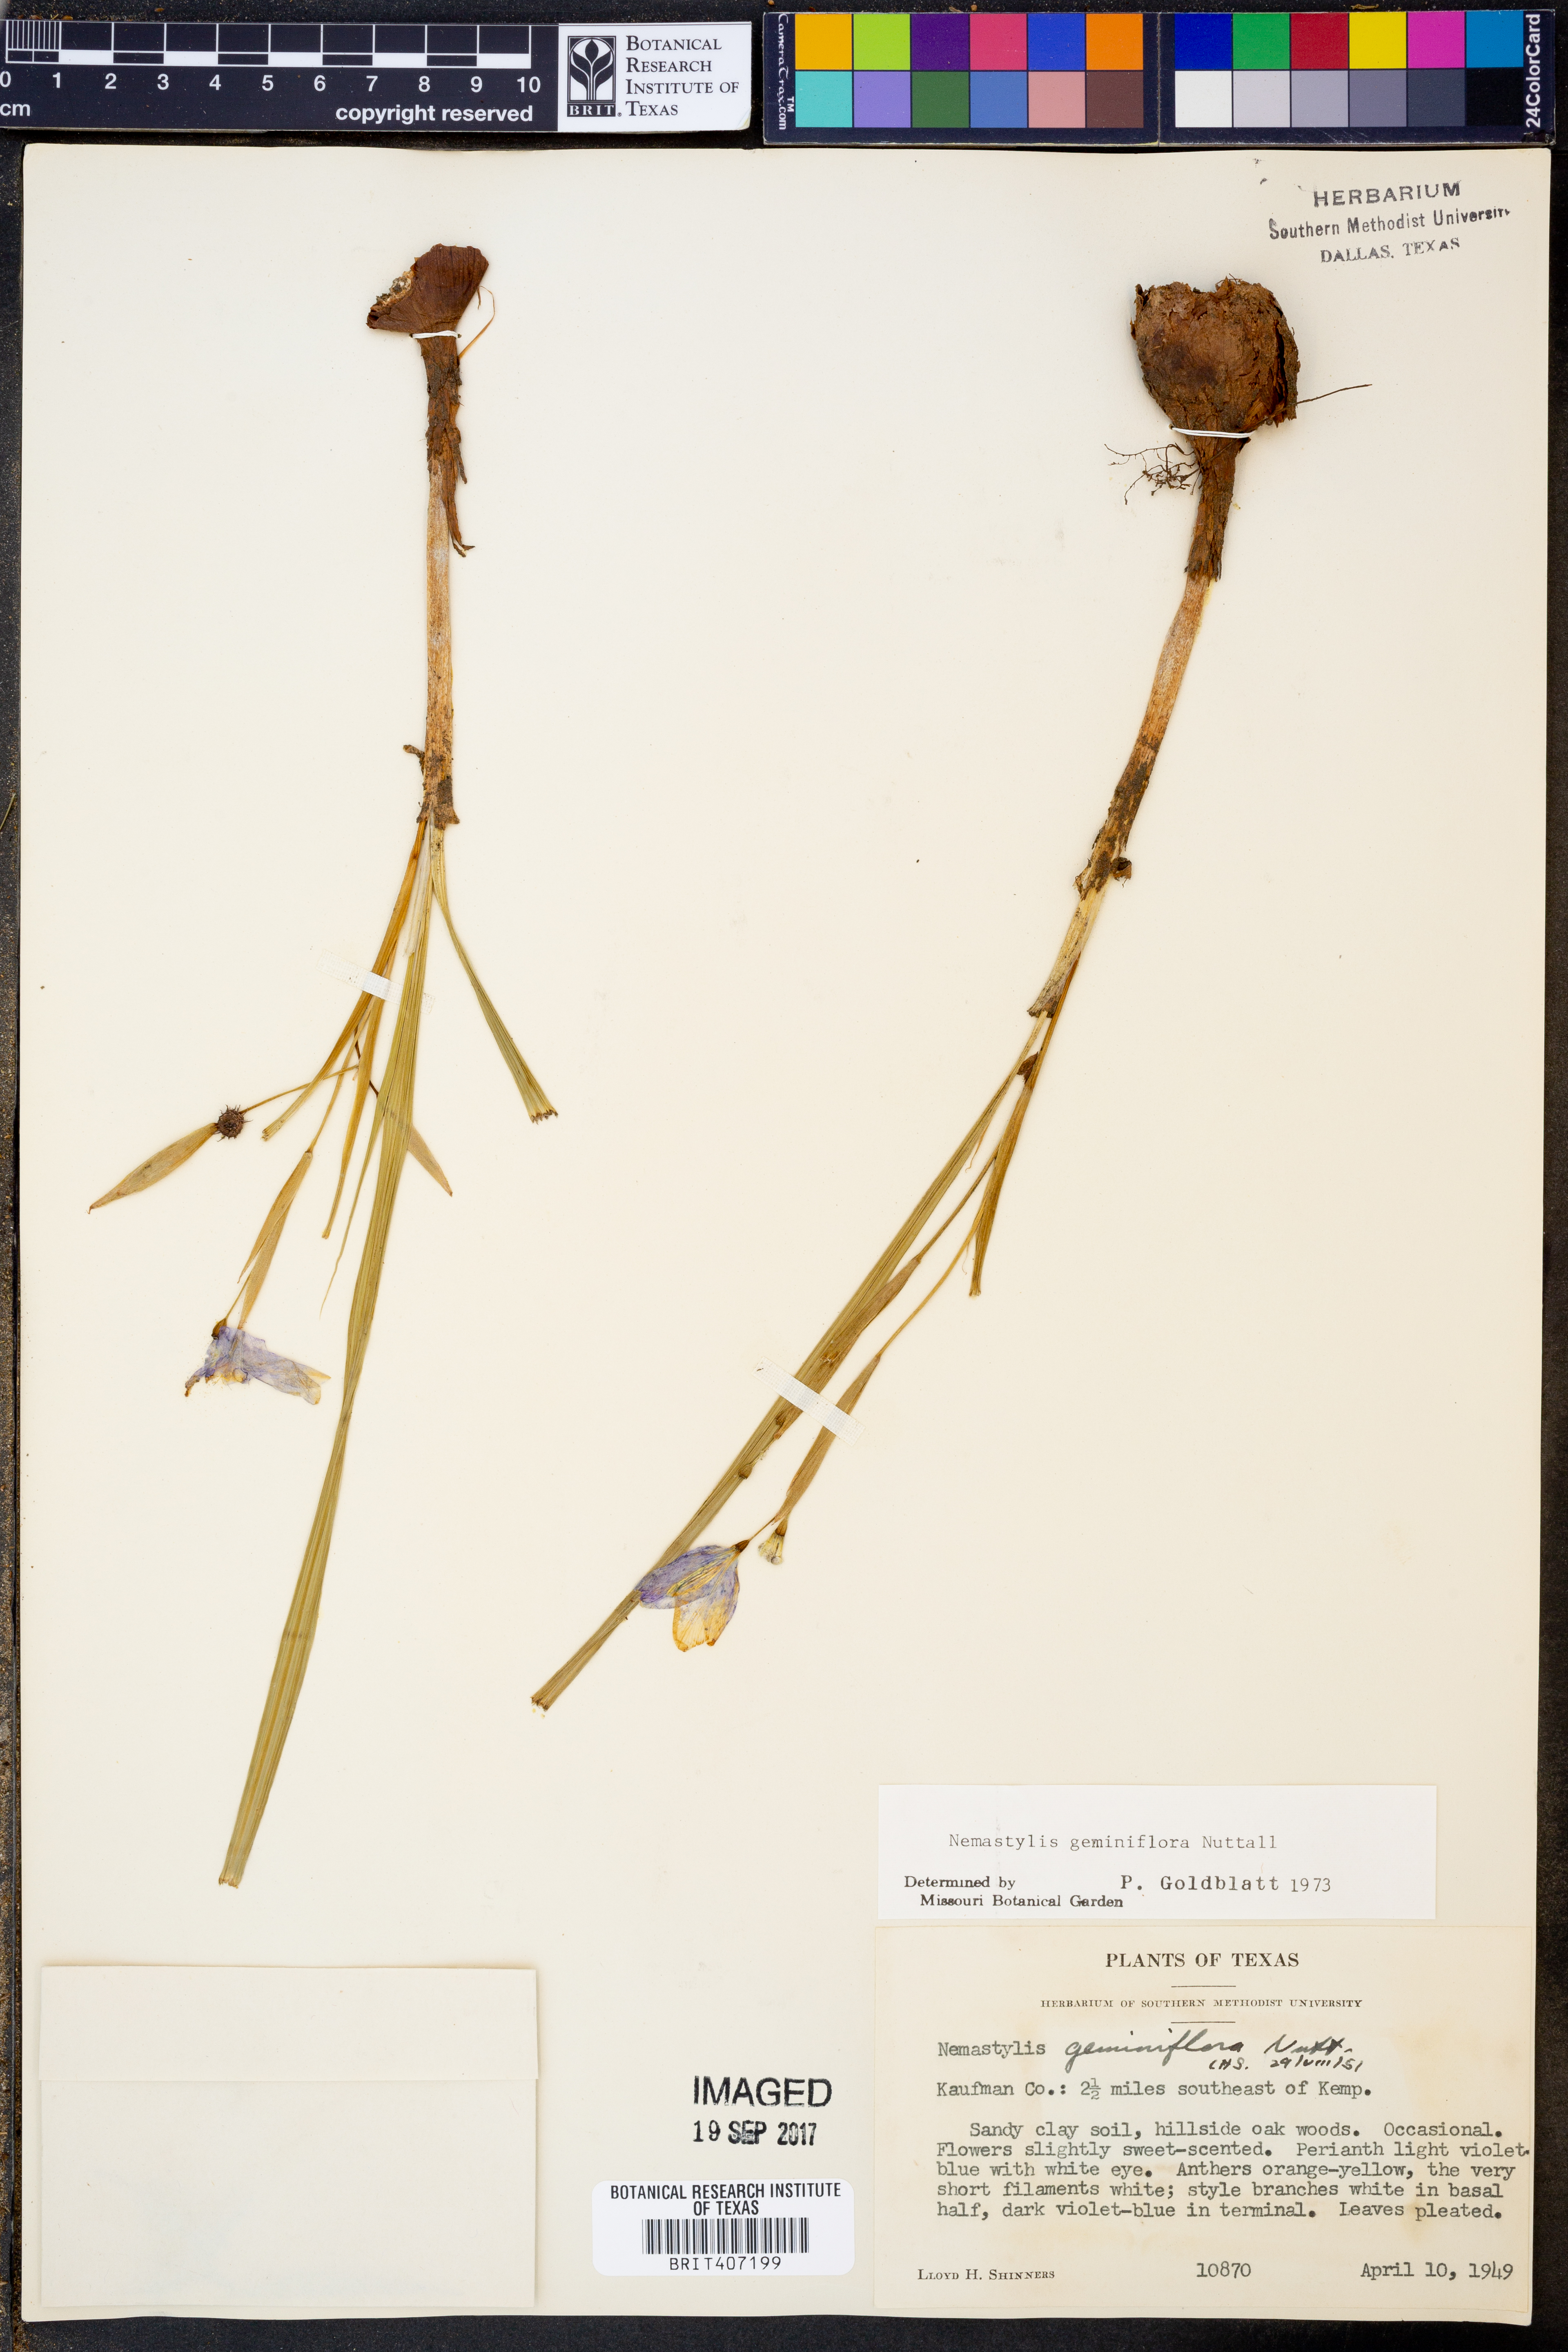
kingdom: Plantae
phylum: Tracheophyta
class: Liliopsida
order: Asparagales
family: Iridaceae
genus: Nemastylis
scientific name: Nemastylis geminiflora
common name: Prairie celestial
